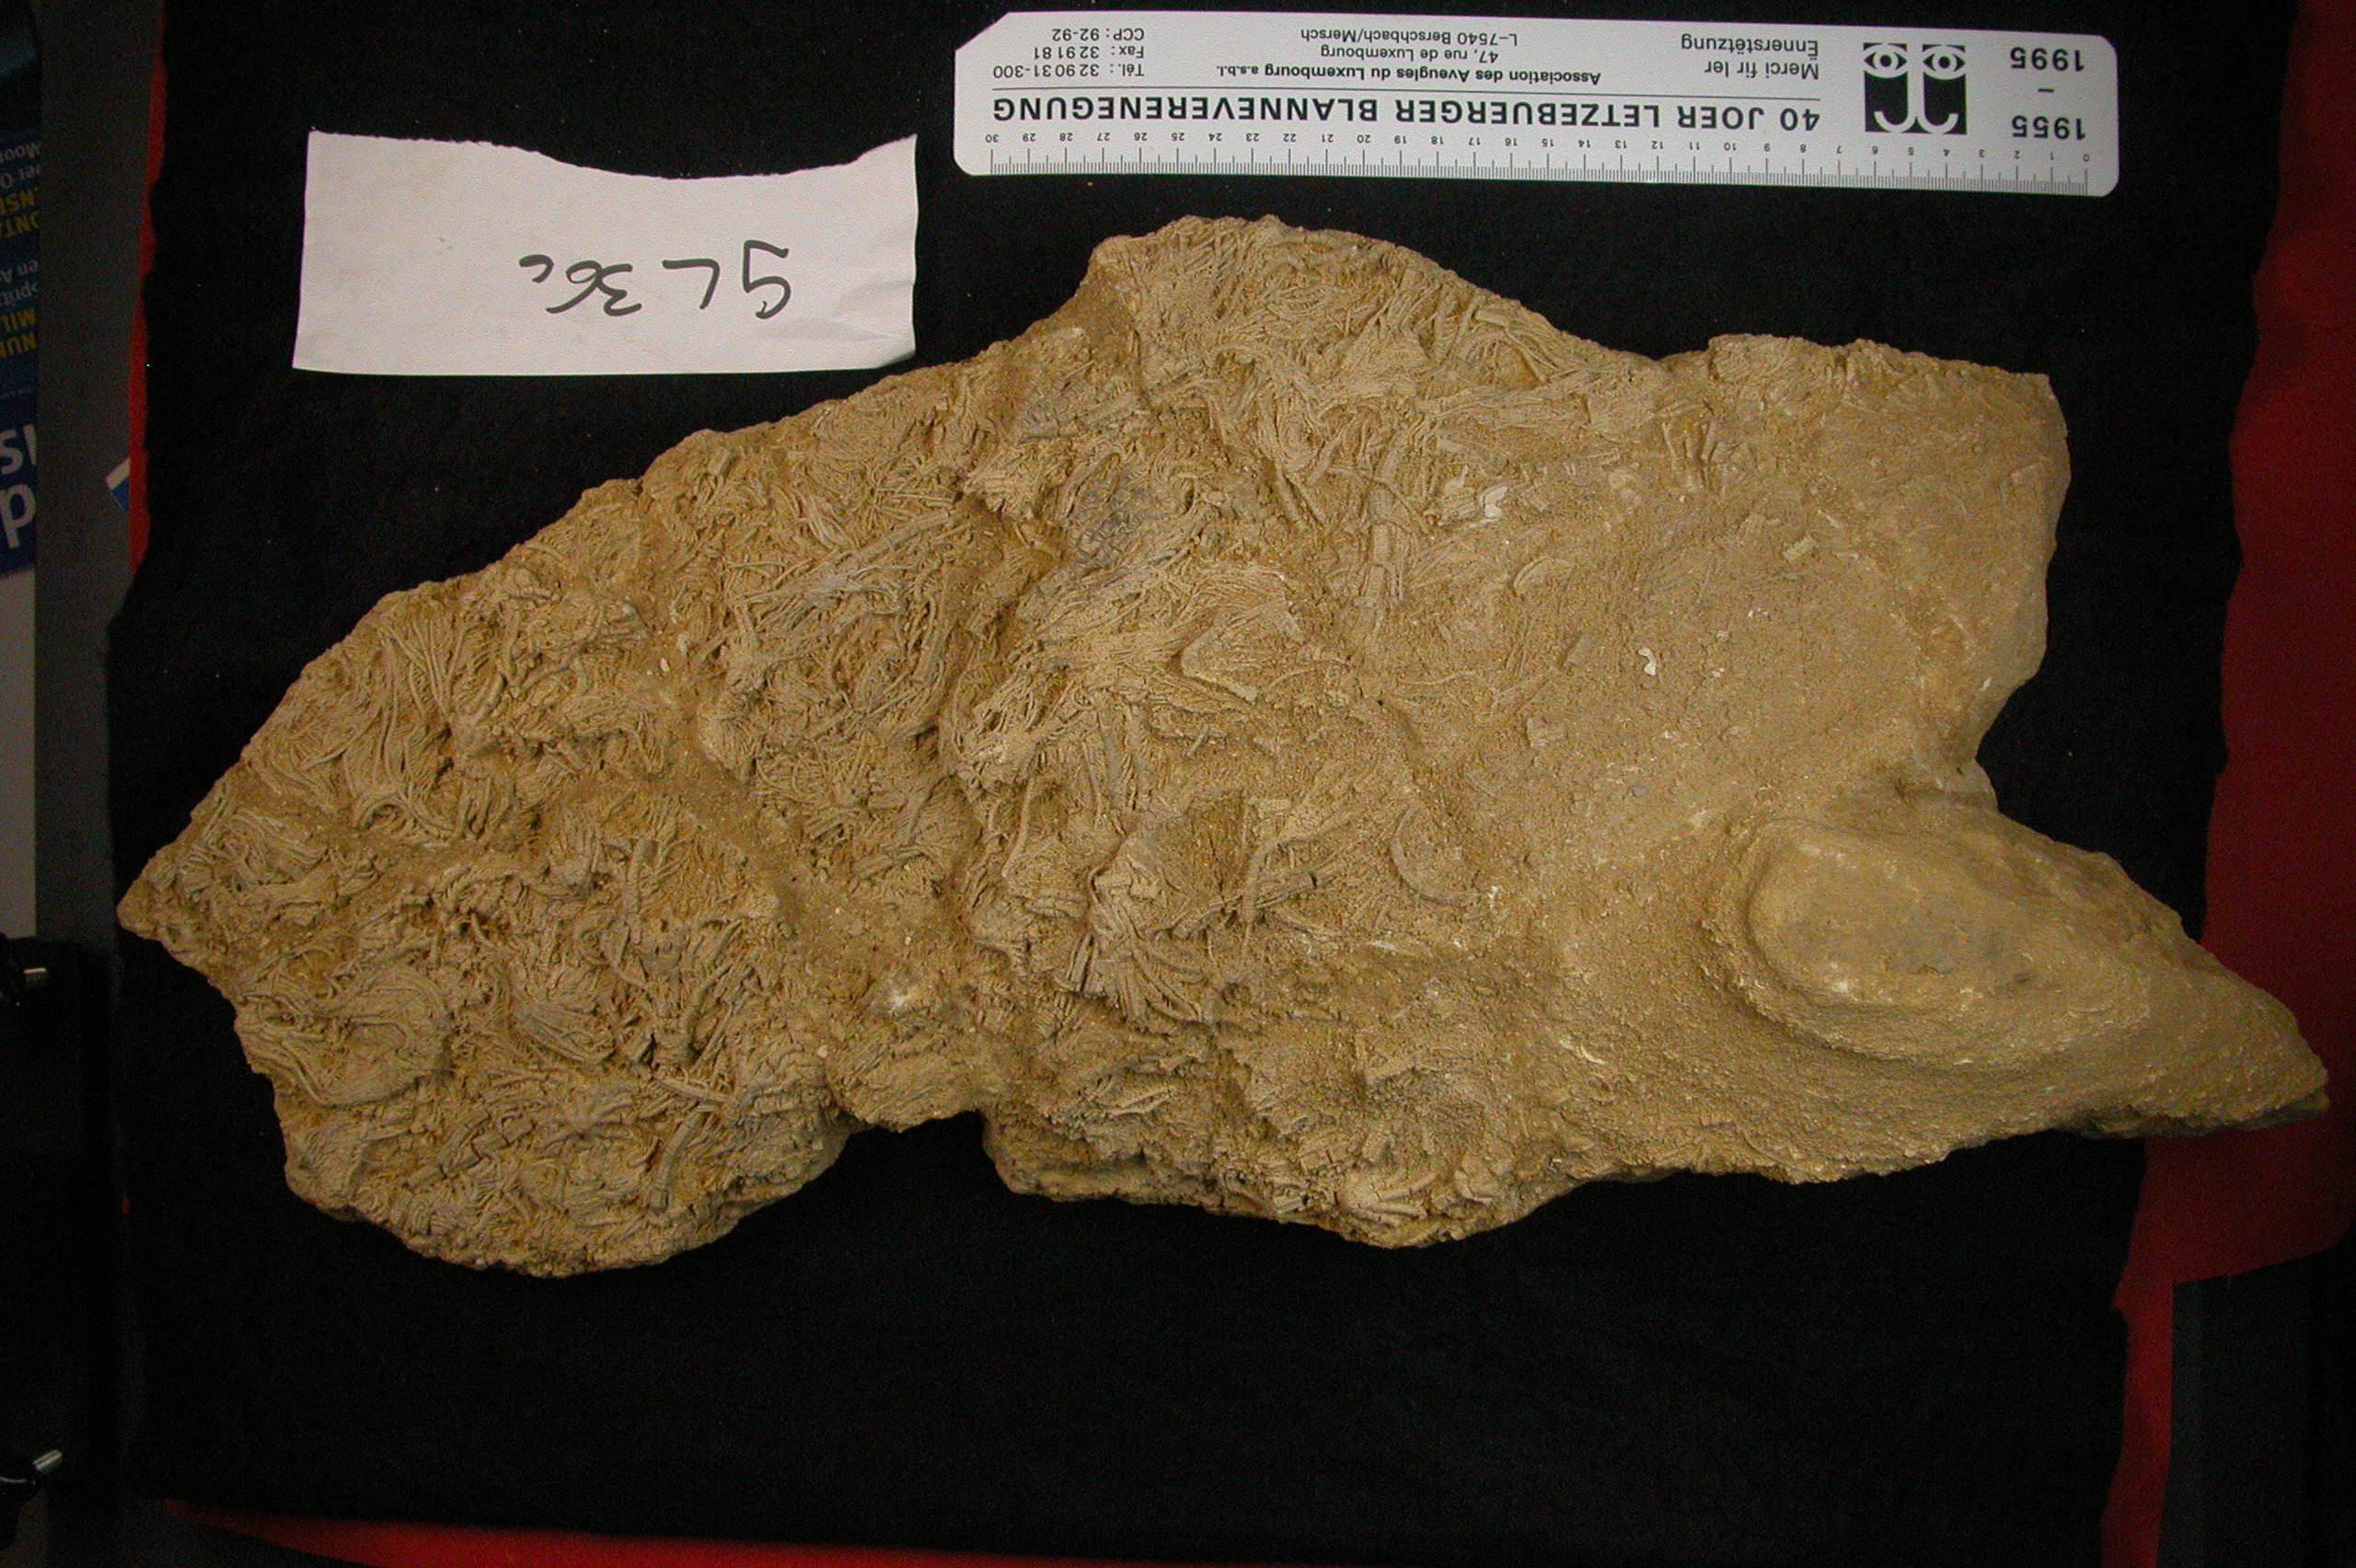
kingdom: Animalia
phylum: Echinodermata
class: Crinoidea
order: Isocrinida
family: Pentacrinitidae
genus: Pentacrinus
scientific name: Pentacrinus
